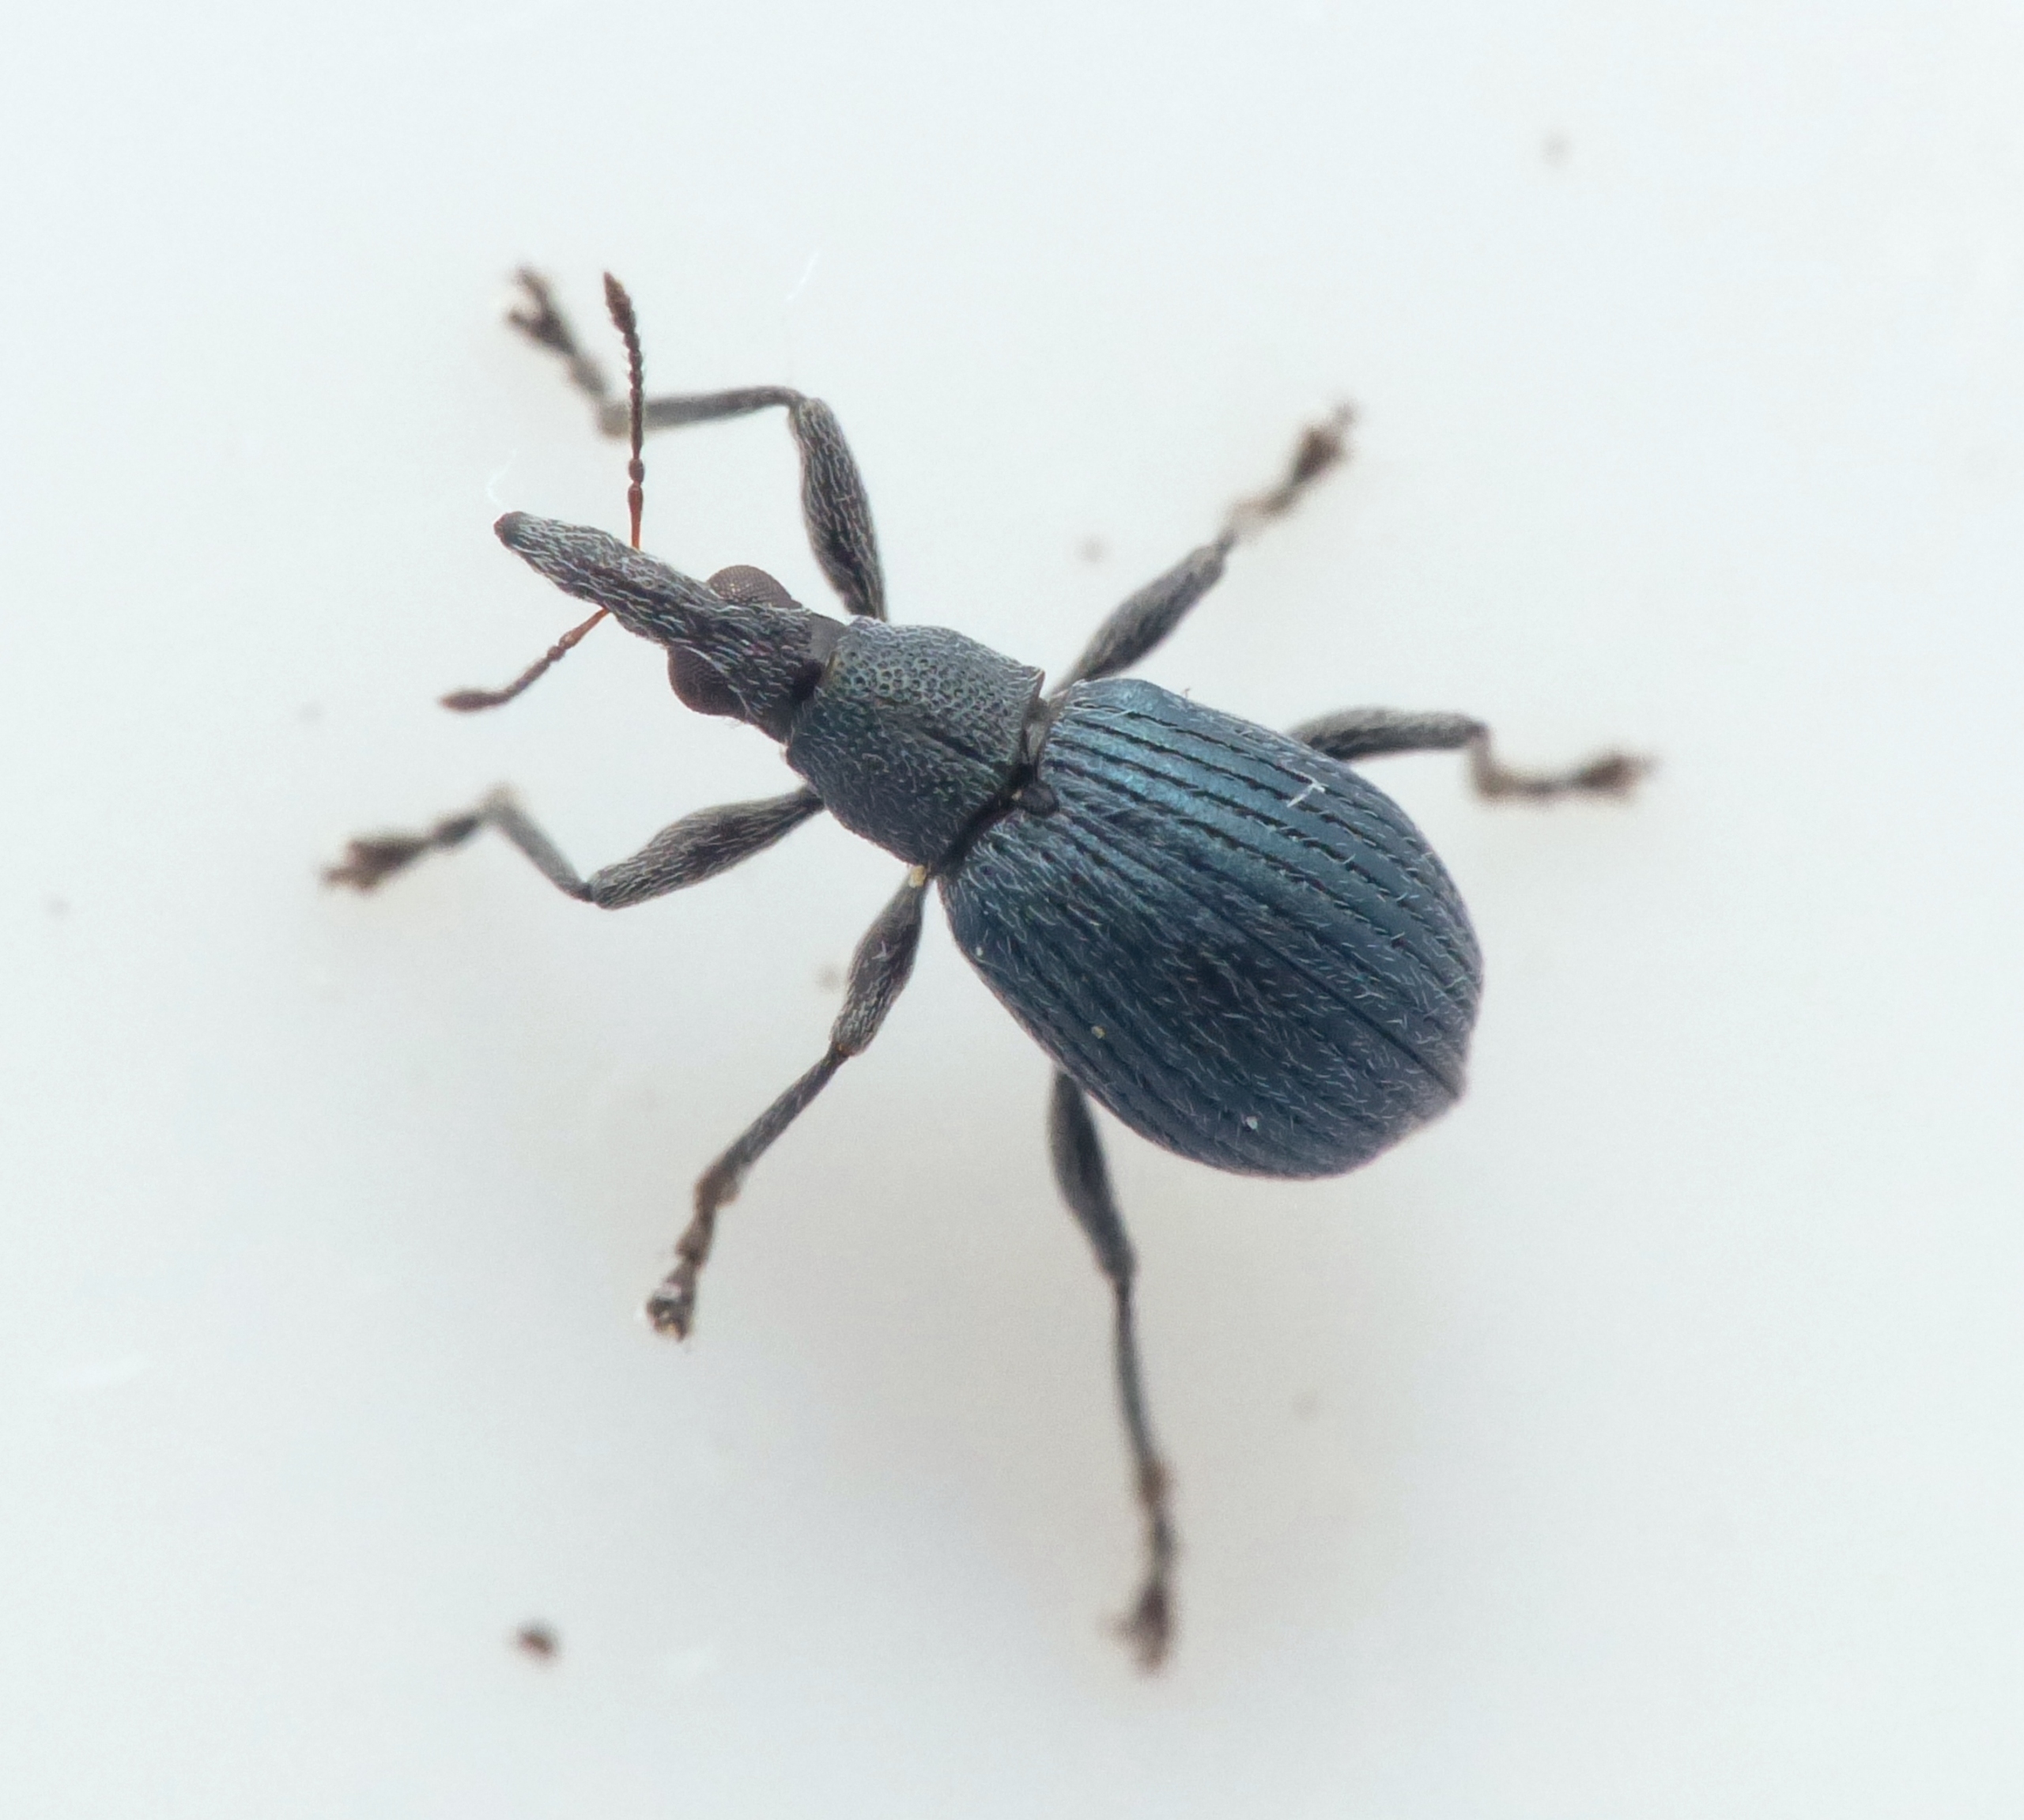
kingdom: Animalia
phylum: Arthropoda
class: Insecta
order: Coleoptera
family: Apionidae
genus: Oxystoma
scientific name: Oxystoma pomonae
